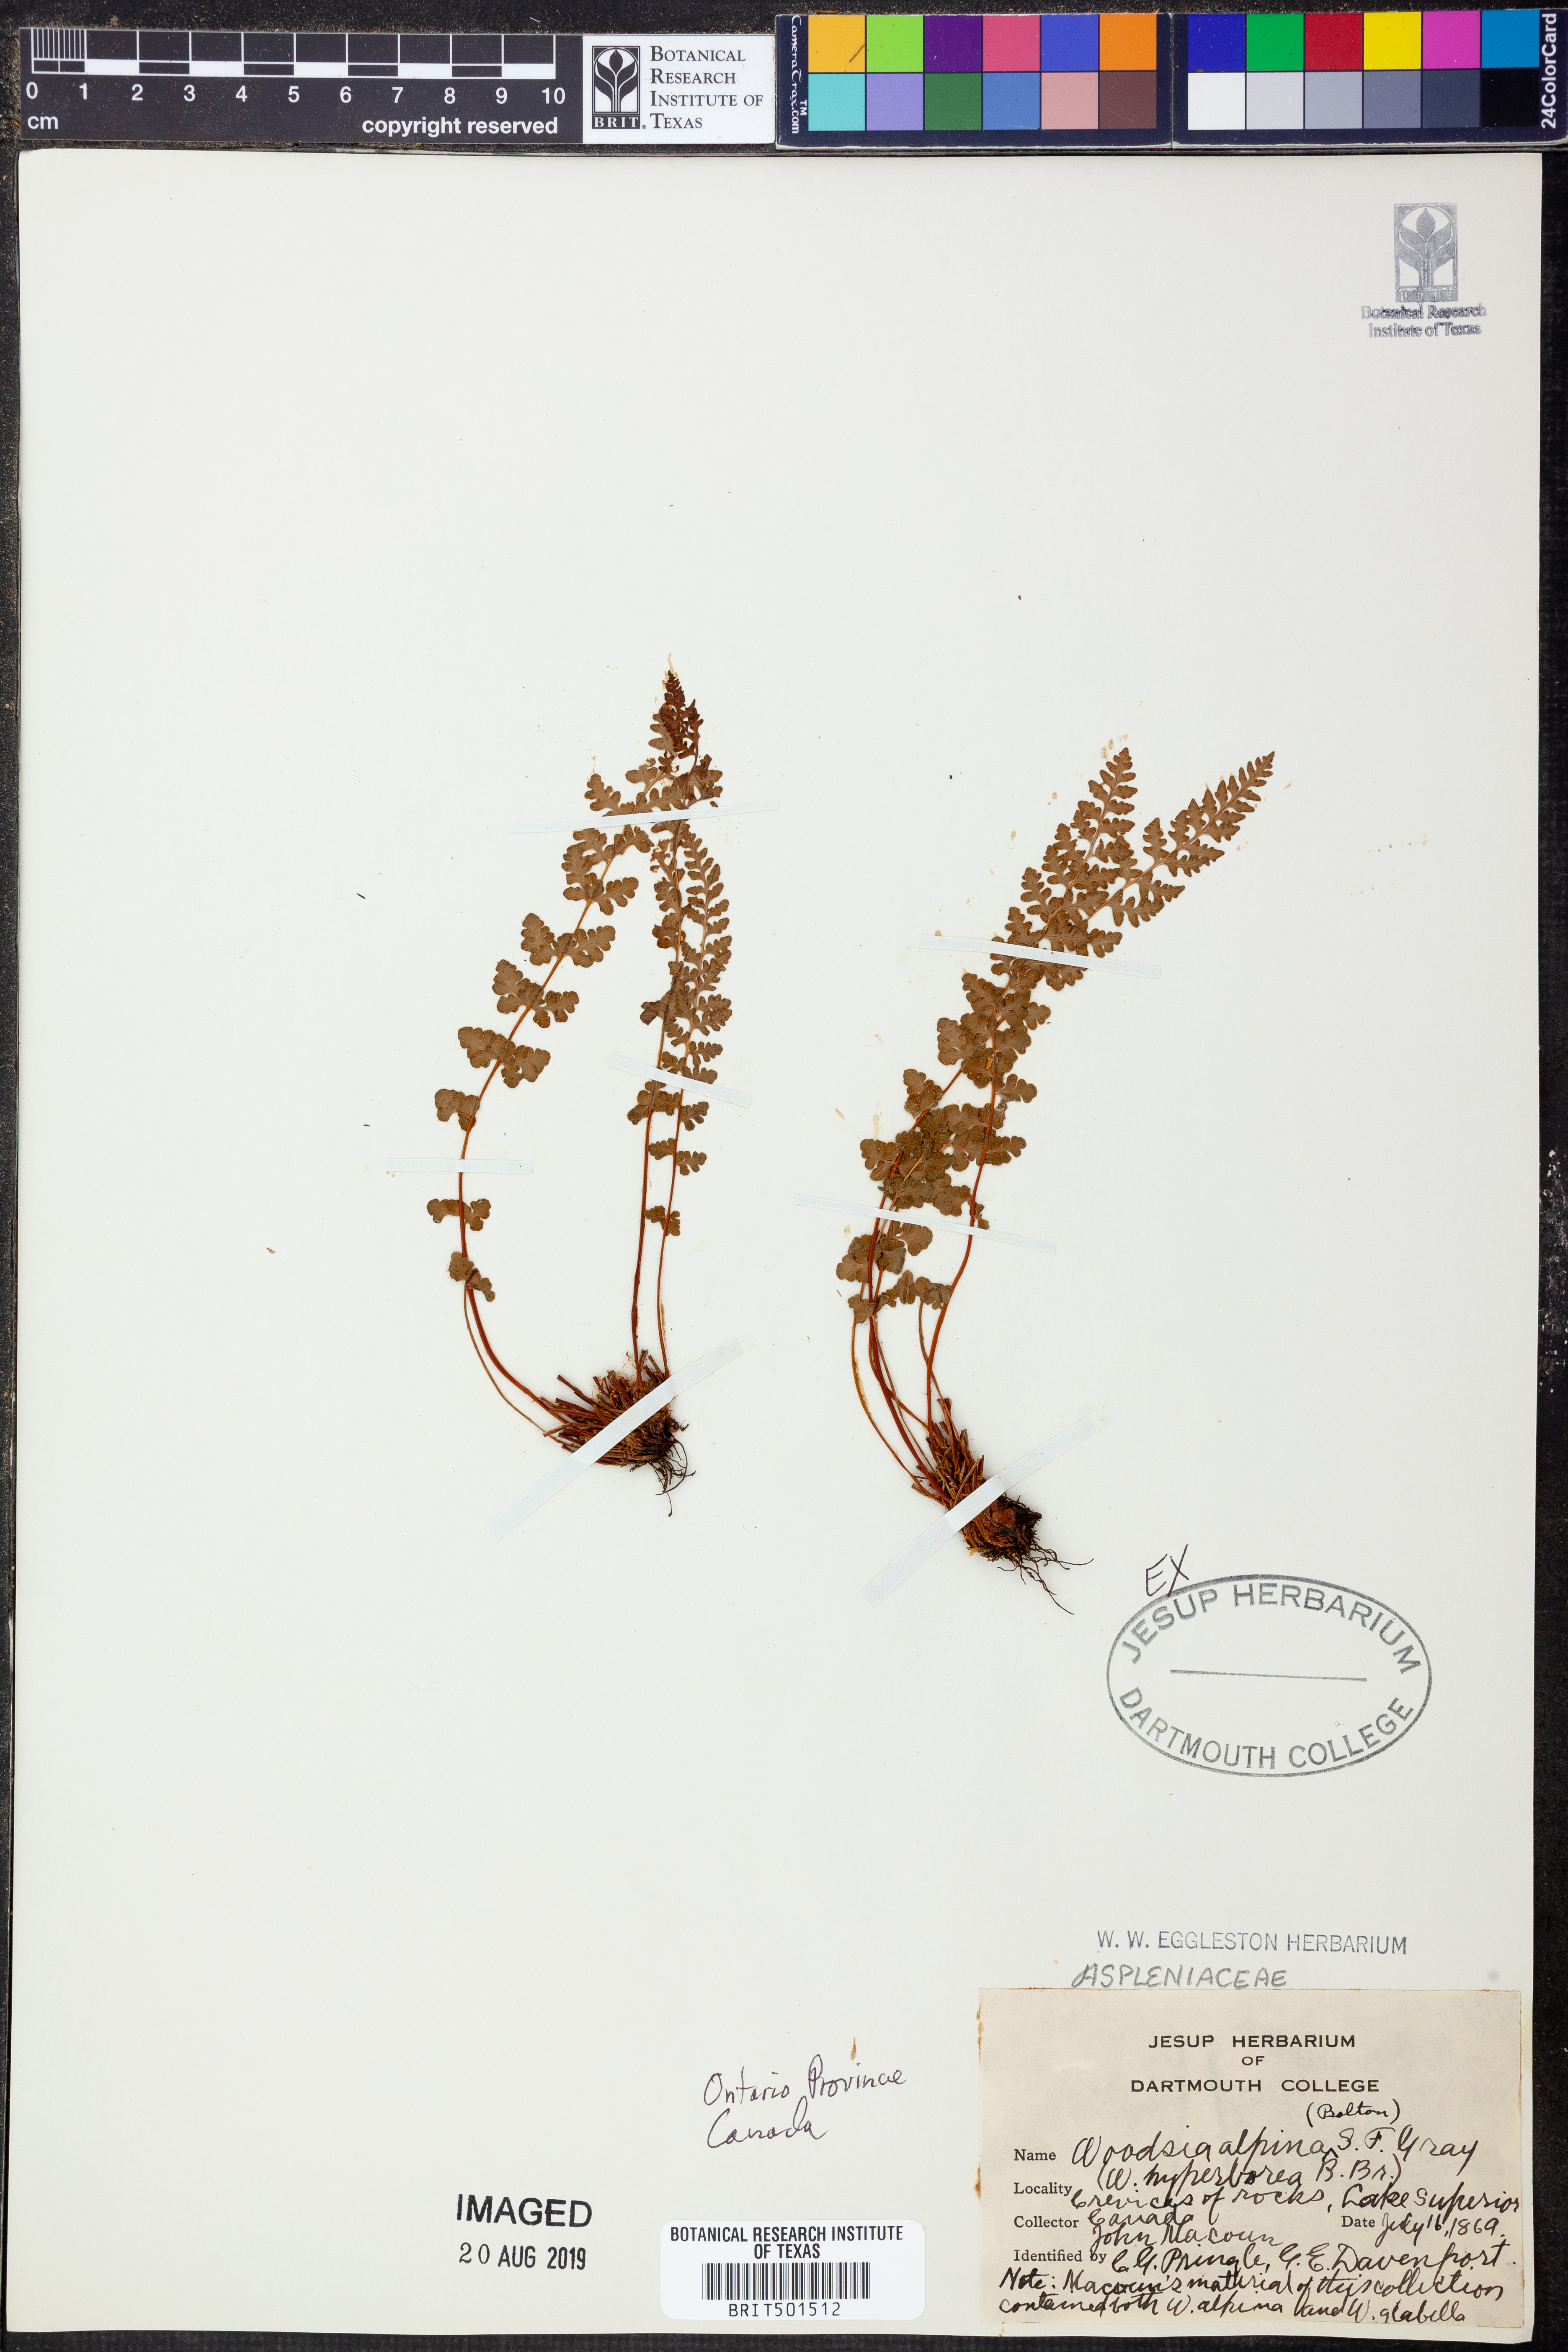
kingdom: Plantae
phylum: Tracheophyta
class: Polypodiopsida
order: Polypodiales
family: Woodsiaceae
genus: Woodsia
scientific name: Woodsia alpina
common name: Alpine woodsia
